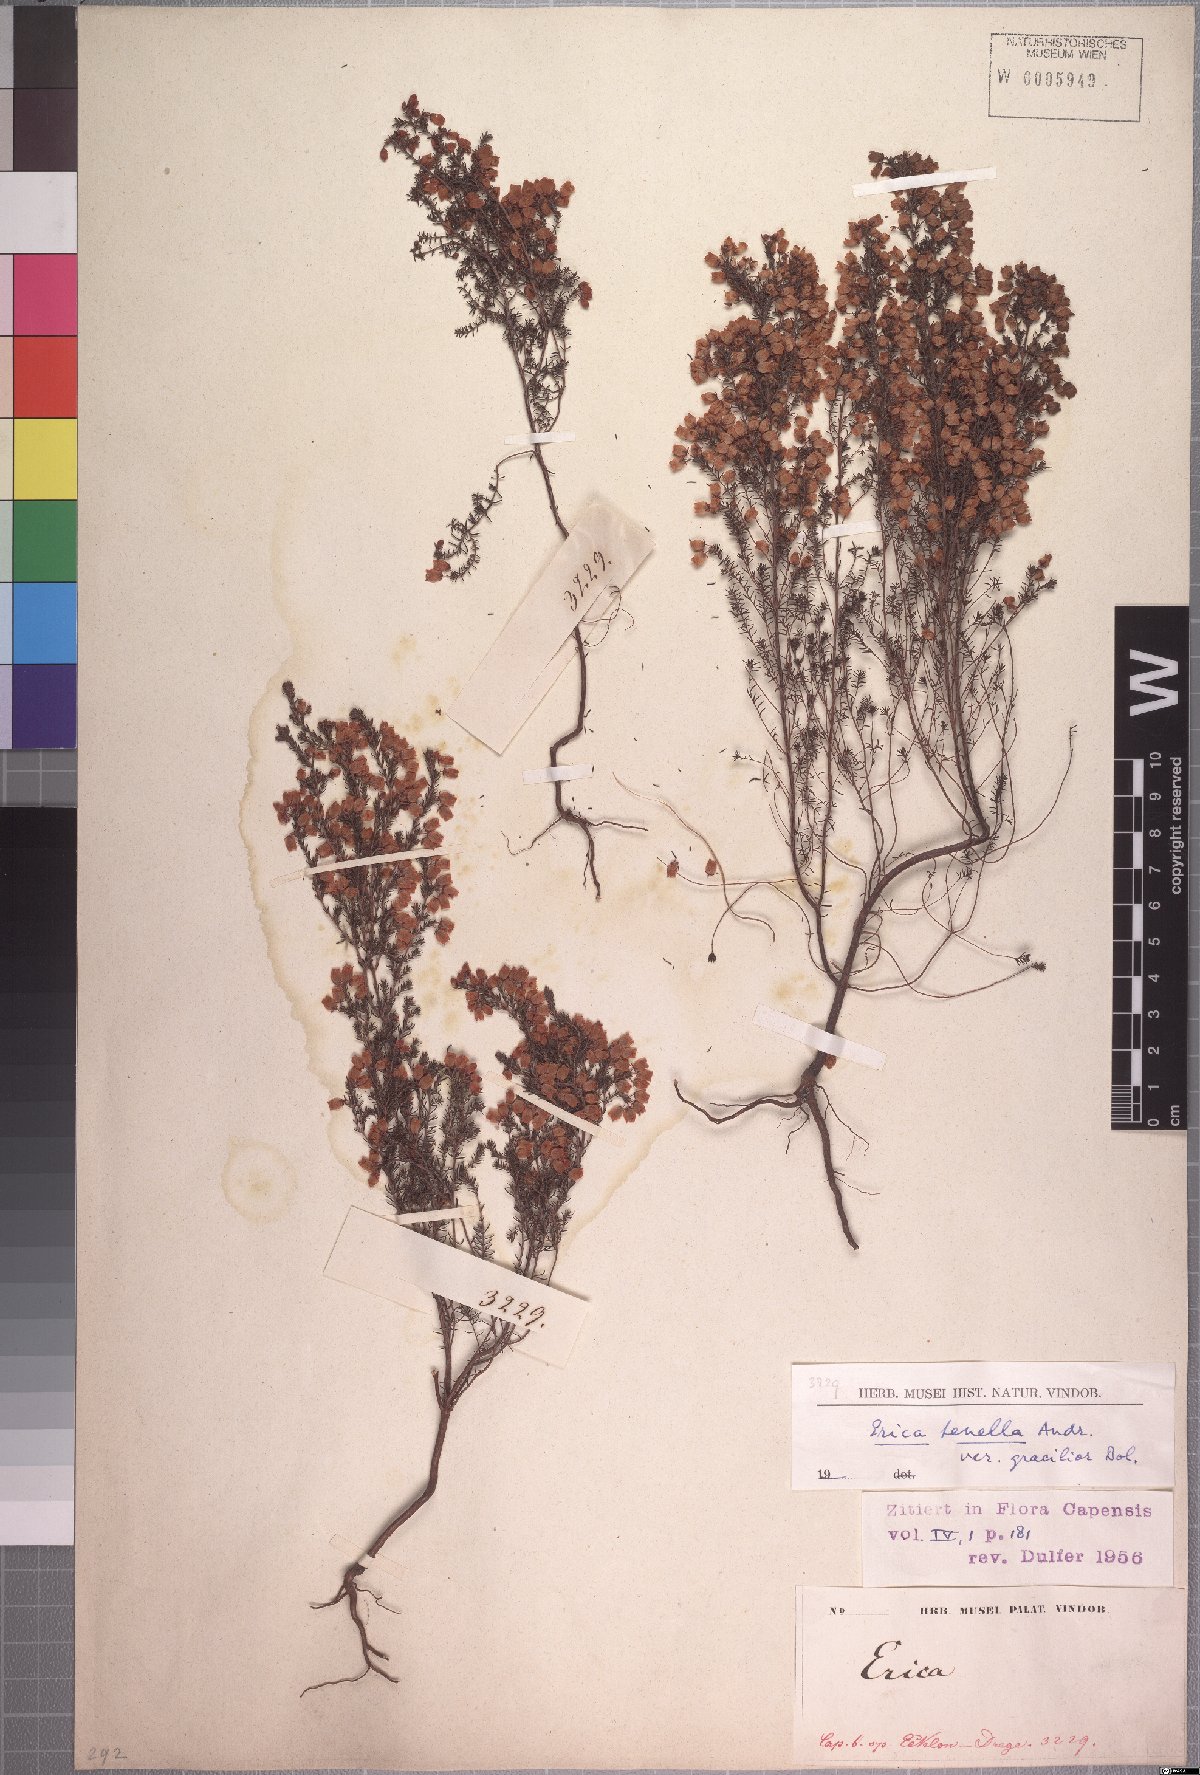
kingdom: Plantae
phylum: Tracheophyta
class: Magnoliopsida
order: Ericales
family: Ericaceae
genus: Erica
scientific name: Erica tenella
